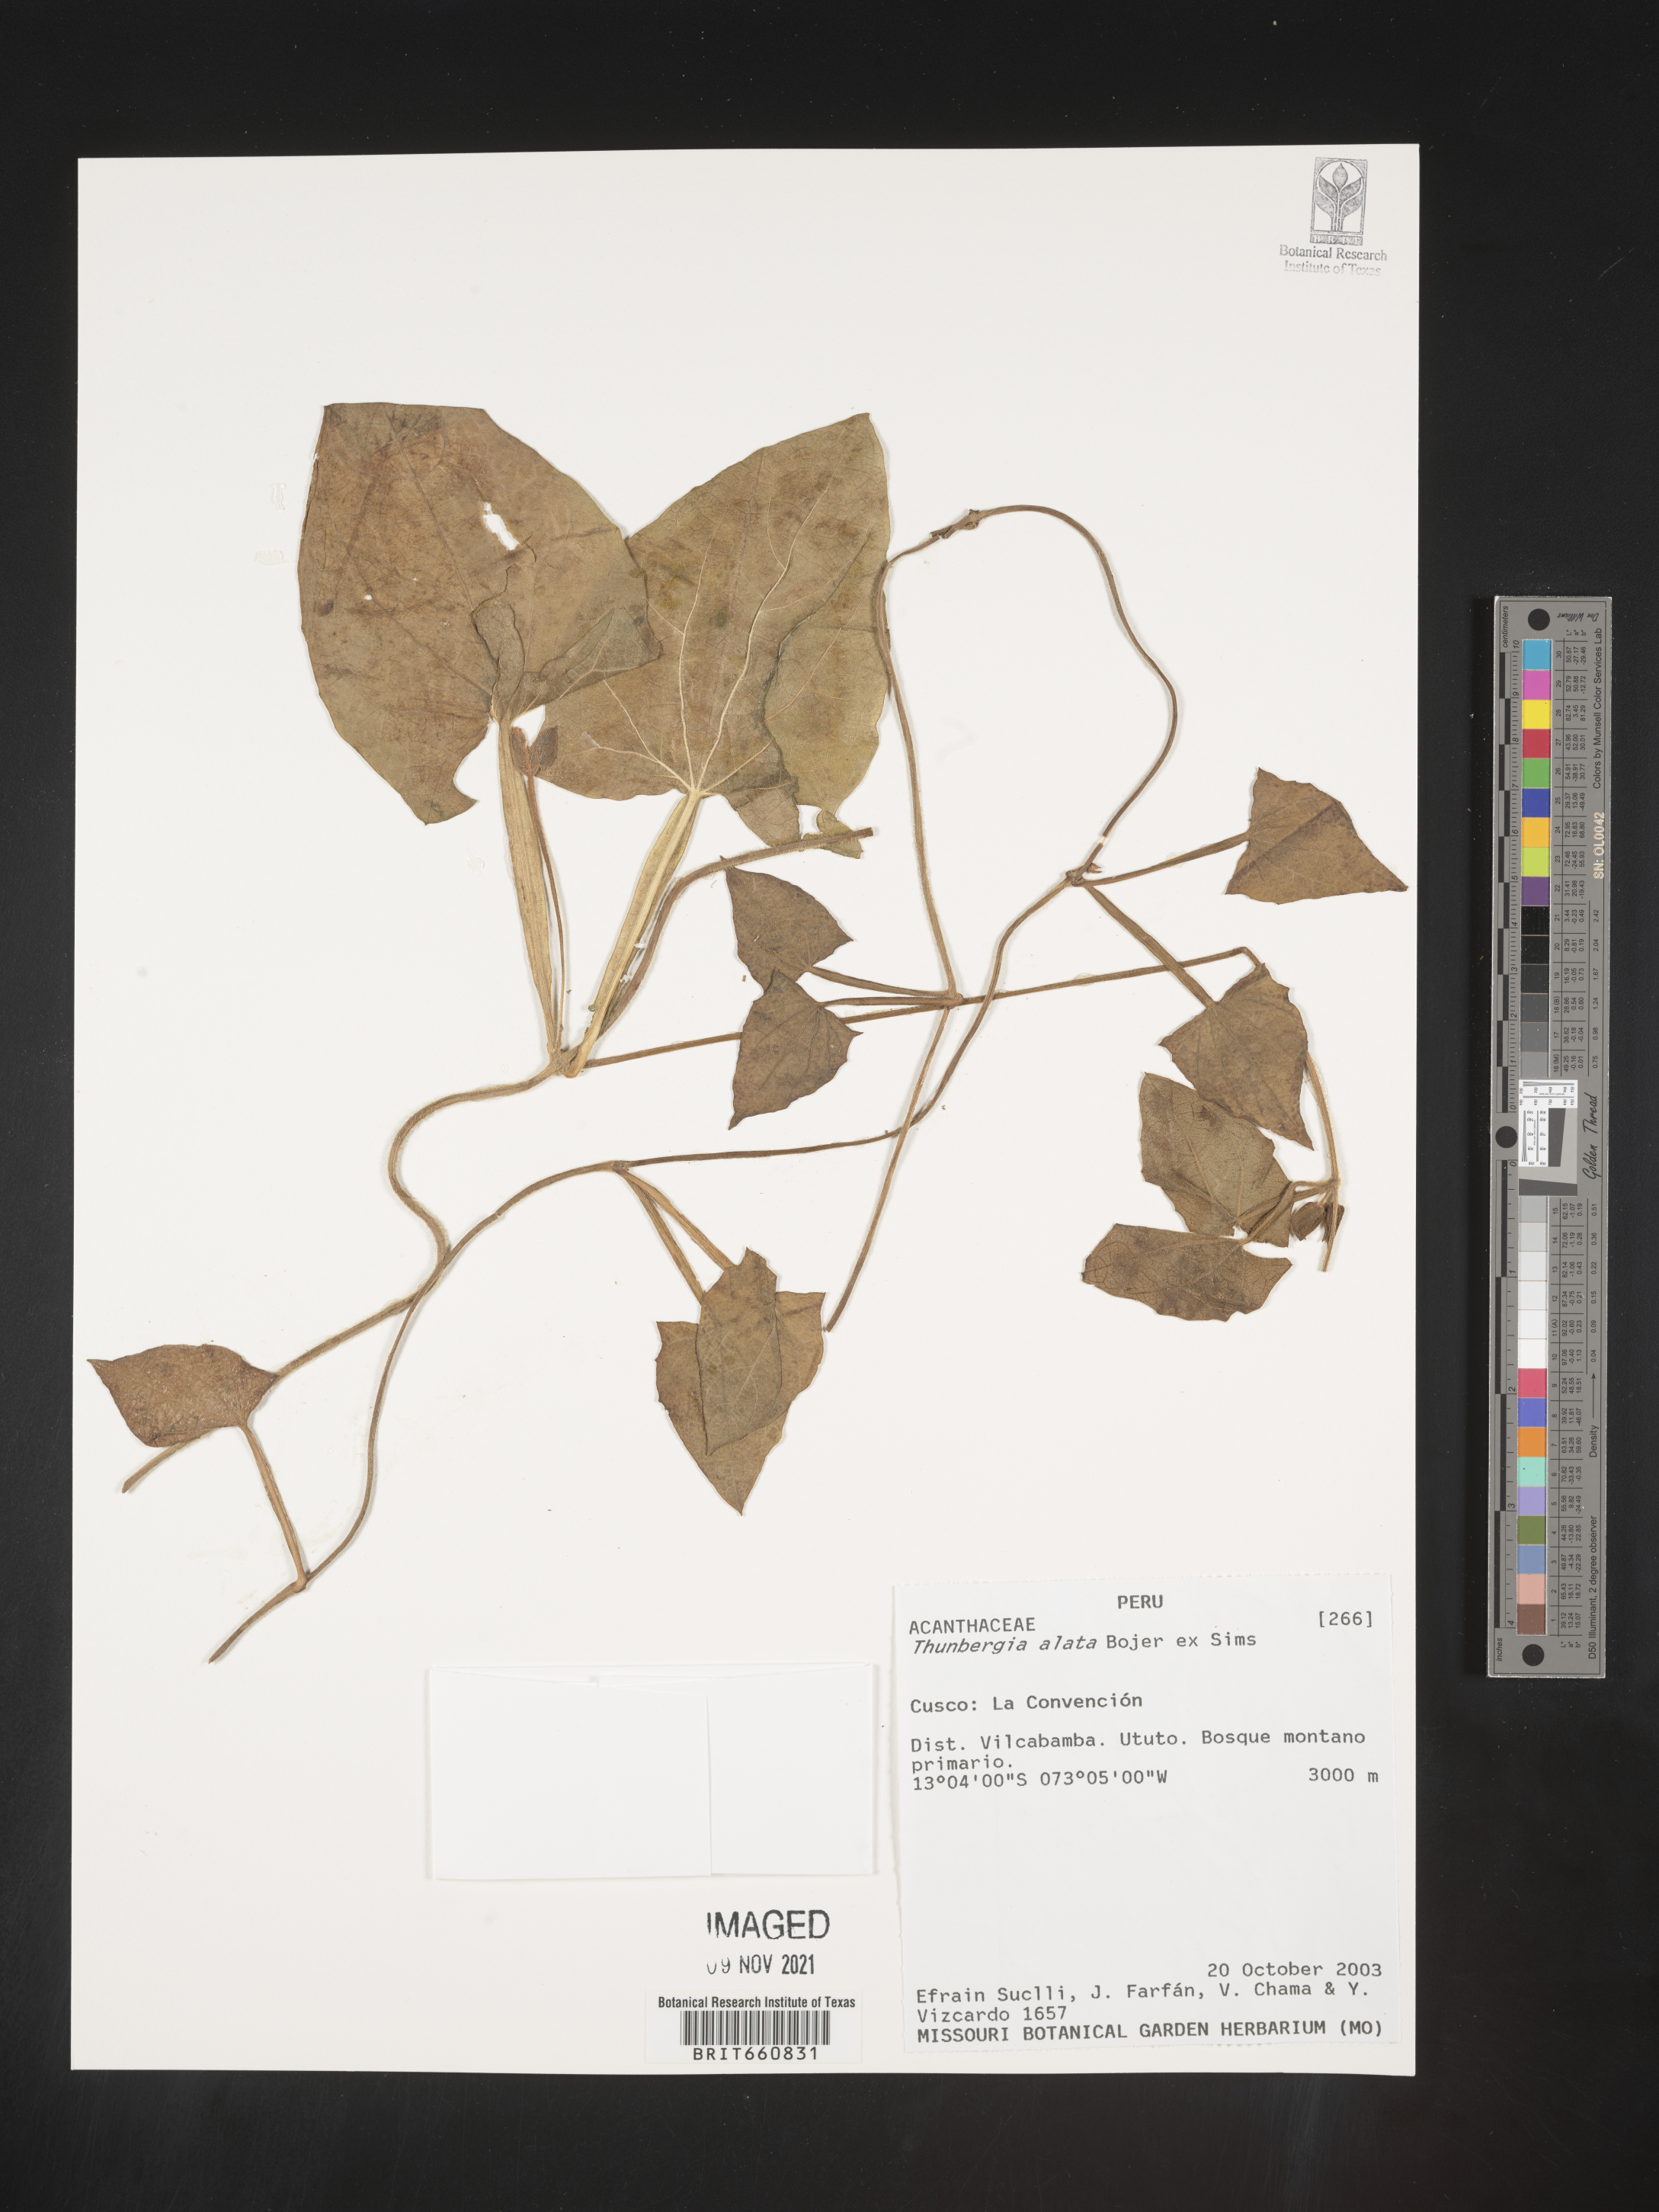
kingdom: Plantae
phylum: Tracheophyta
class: Magnoliopsida
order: Lamiales
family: Acanthaceae
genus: Thunbergia
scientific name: Thunbergia
